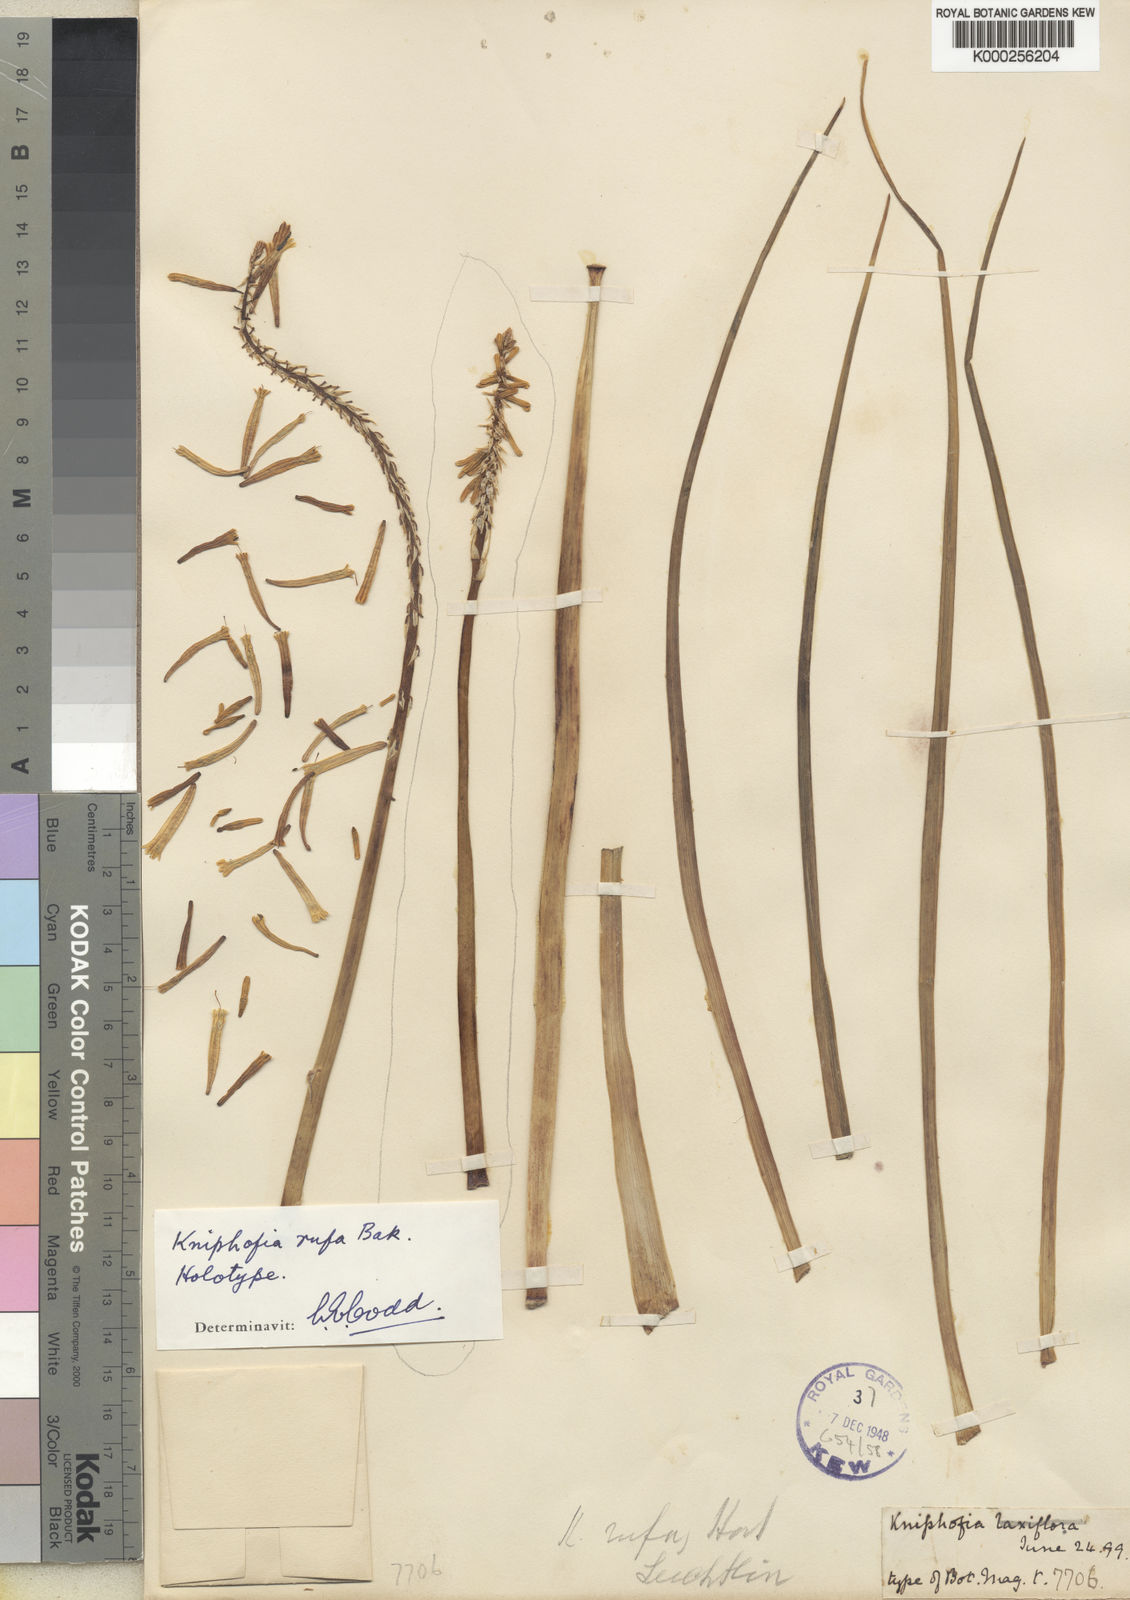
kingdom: Plantae
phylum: Tracheophyta
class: Liliopsida
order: Asparagales
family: Asphodelaceae
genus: Kniphofia
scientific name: Kniphofia rufa
